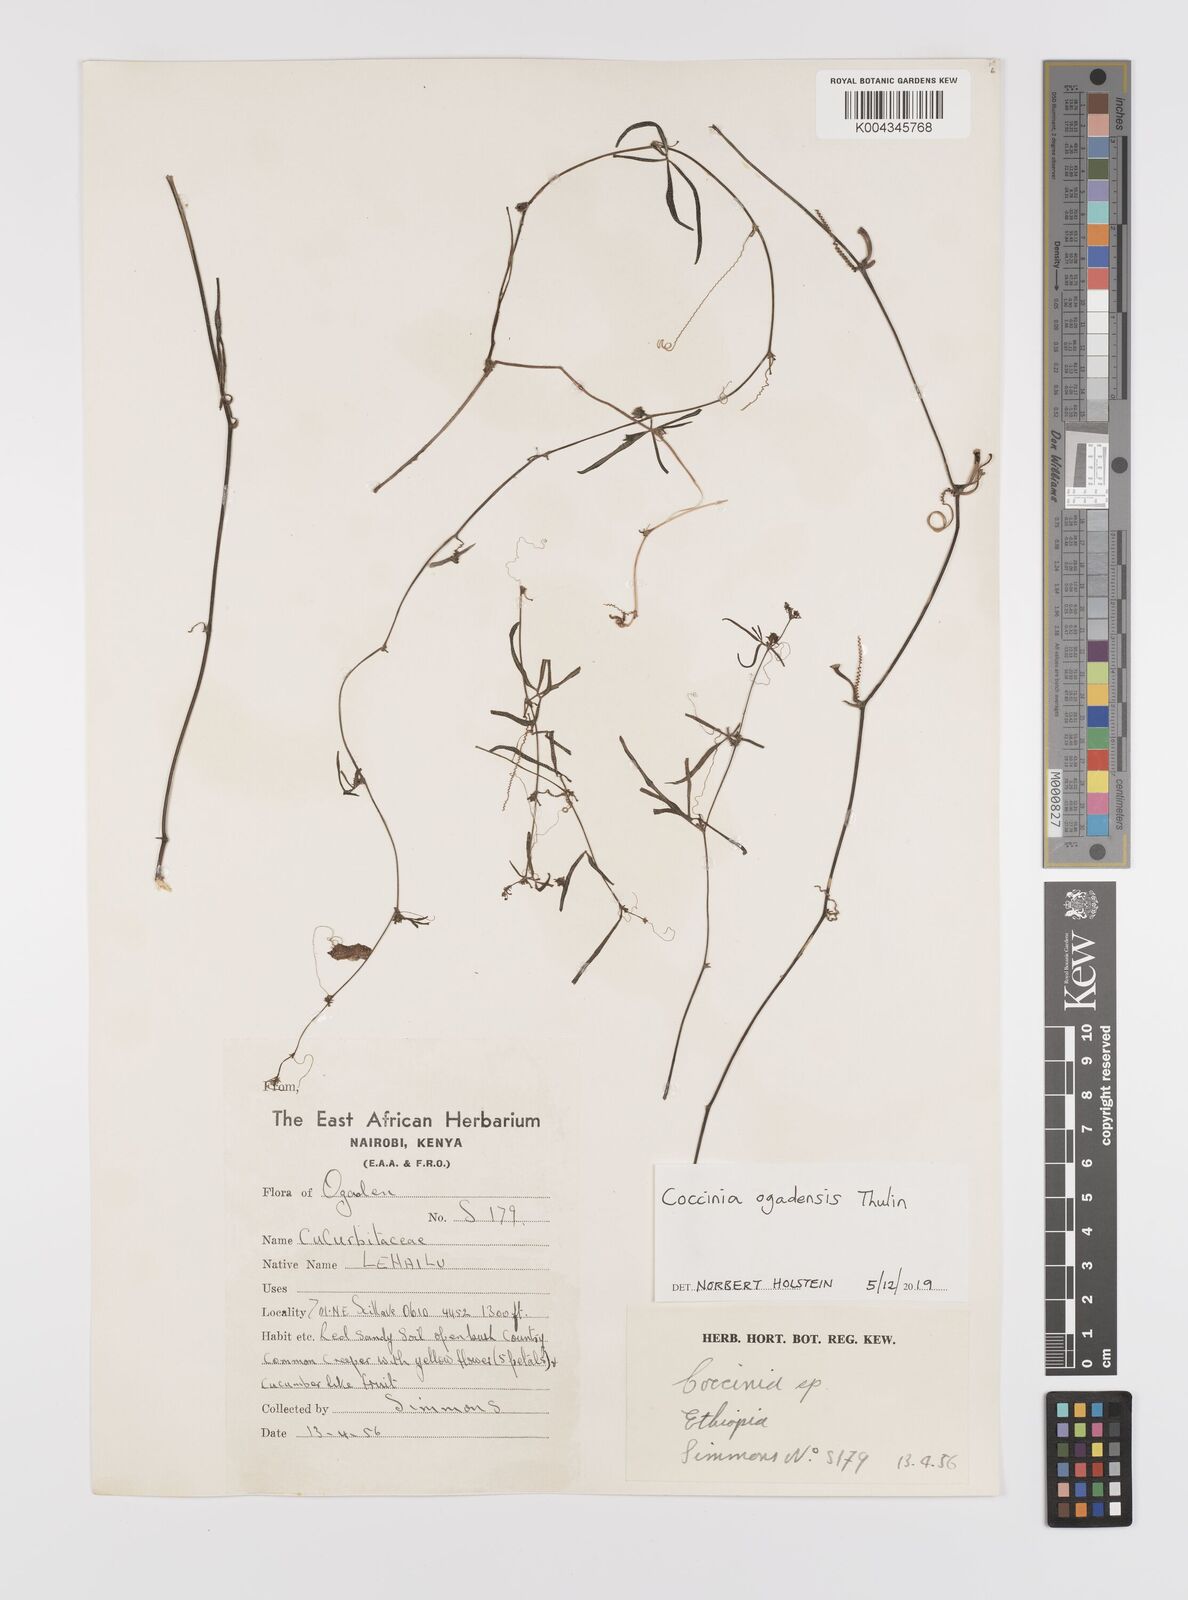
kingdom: Plantae
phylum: Tracheophyta
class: Magnoliopsida
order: Cucurbitales
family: Cucurbitaceae
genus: Coccinia
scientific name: Coccinia ogadensis
